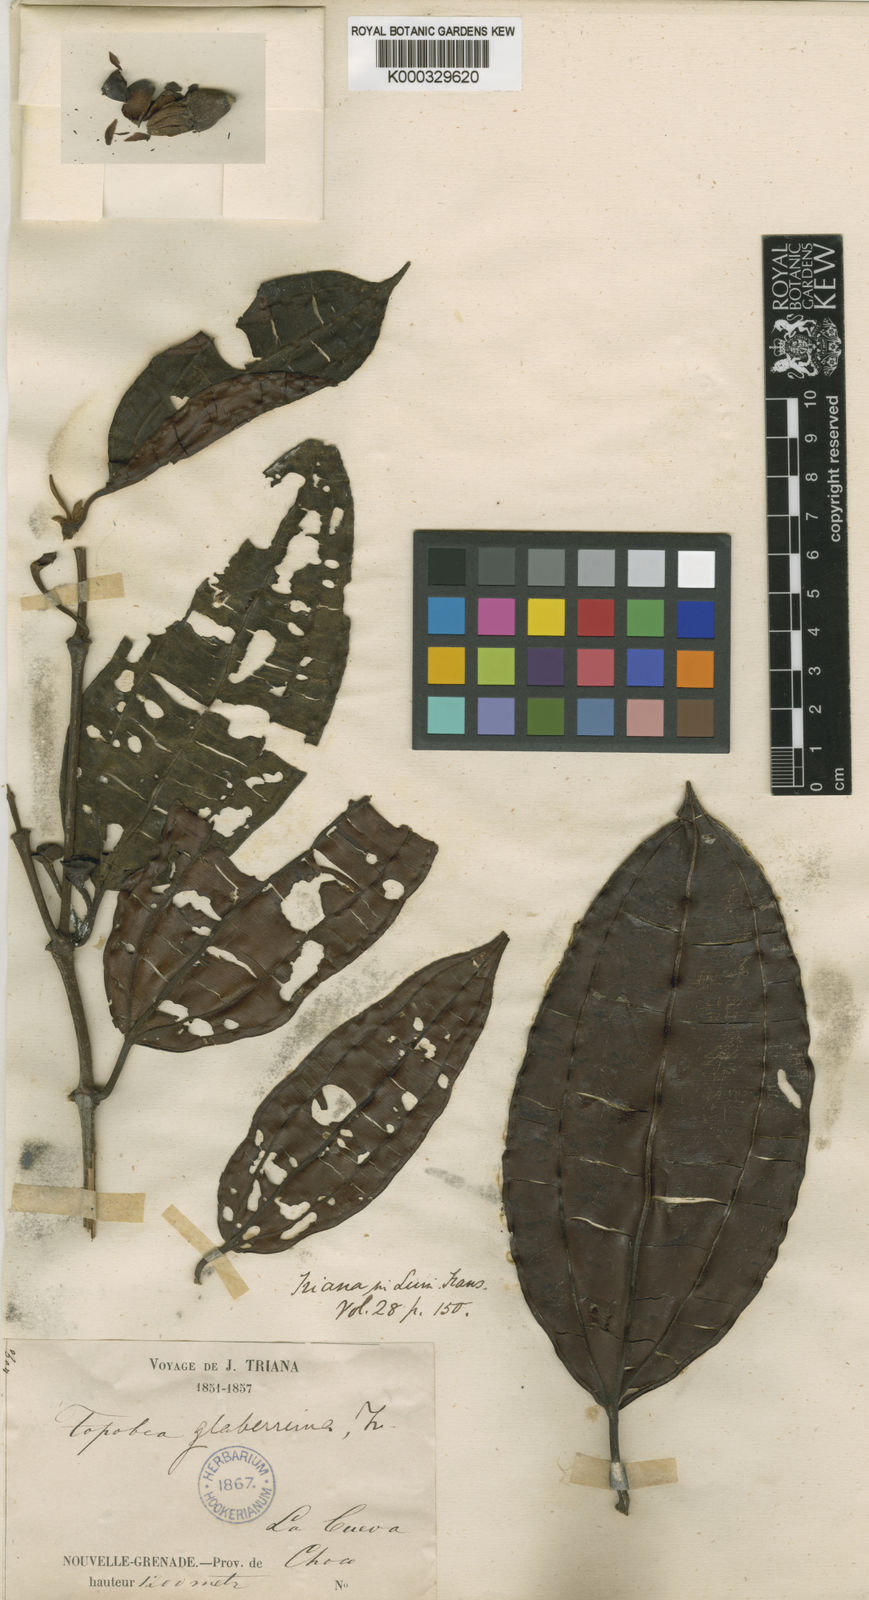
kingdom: Plantae
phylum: Tracheophyta
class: Magnoliopsida
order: Myrtales
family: Melastomataceae
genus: Blakea
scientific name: Blakea glaberrima
